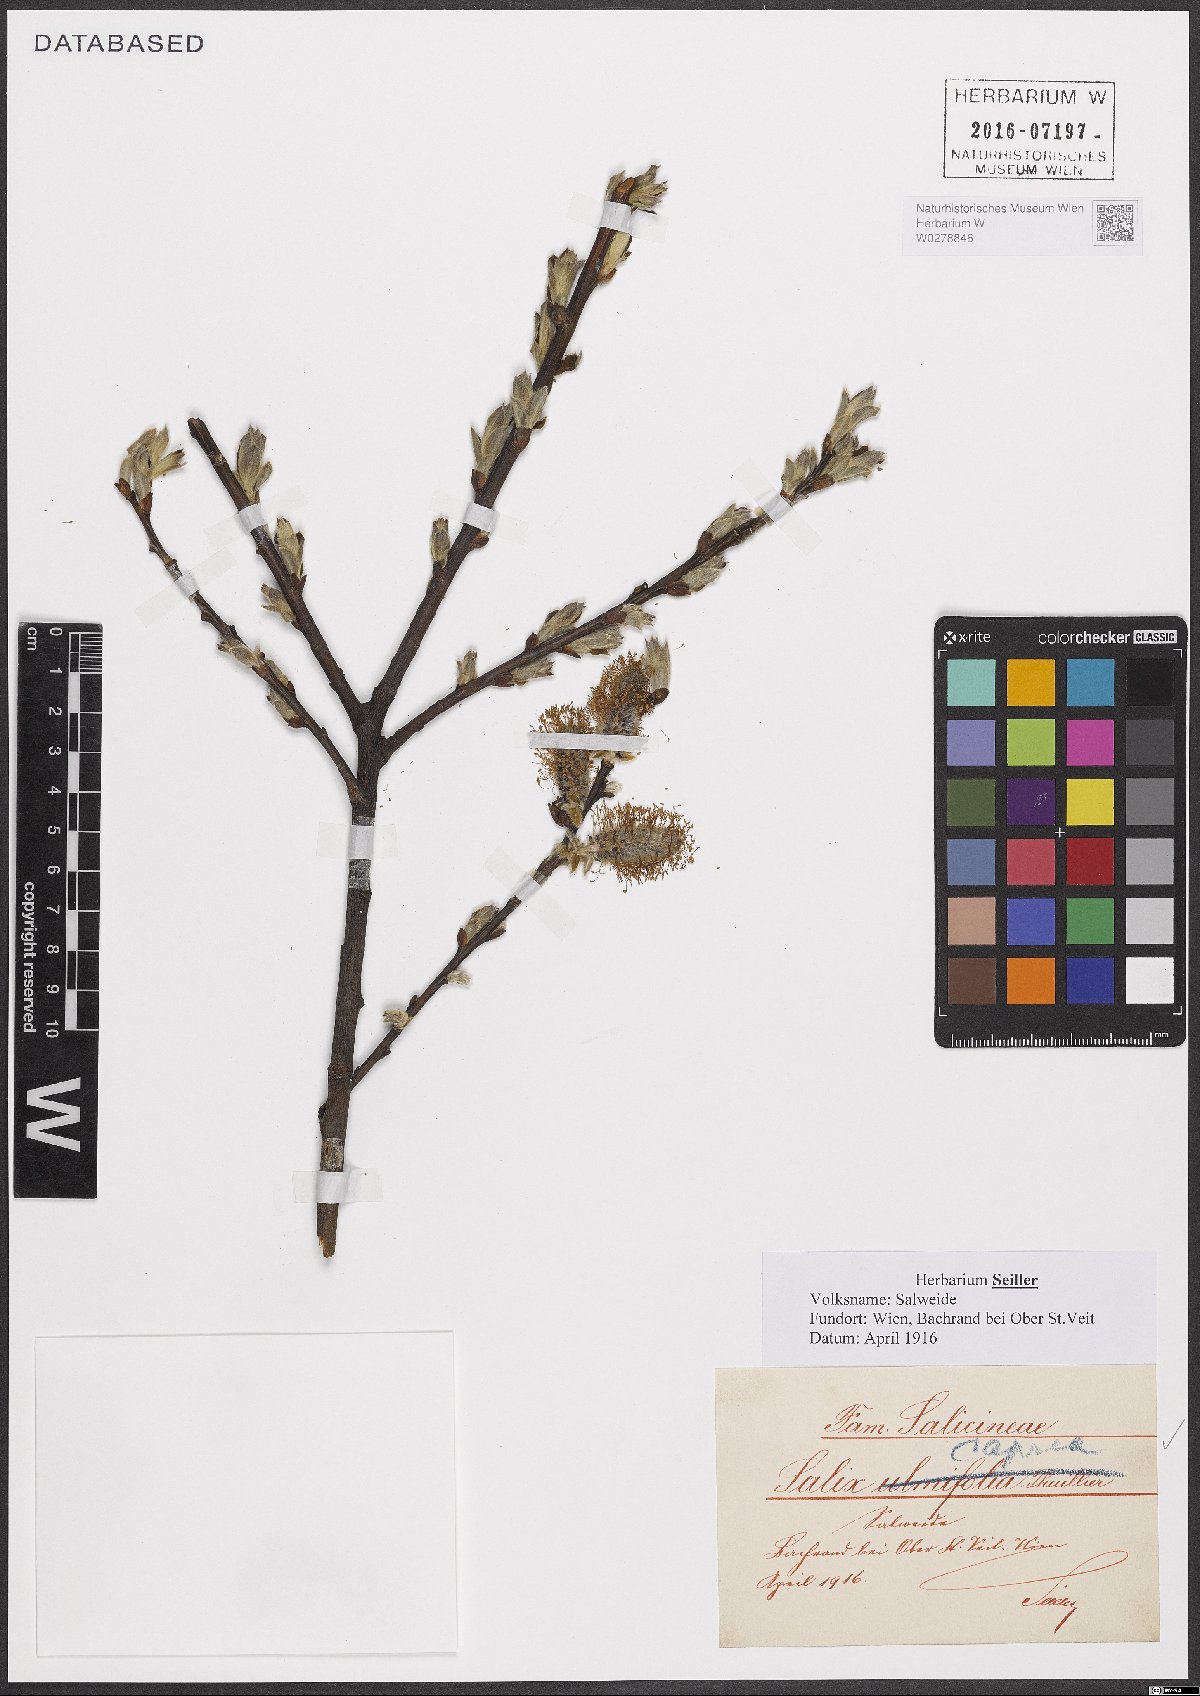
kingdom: Plantae
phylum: Tracheophyta
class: Magnoliopsida
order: Malpighiales
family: Salicaceae
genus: Salix
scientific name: Salix caprea
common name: Goat willow
